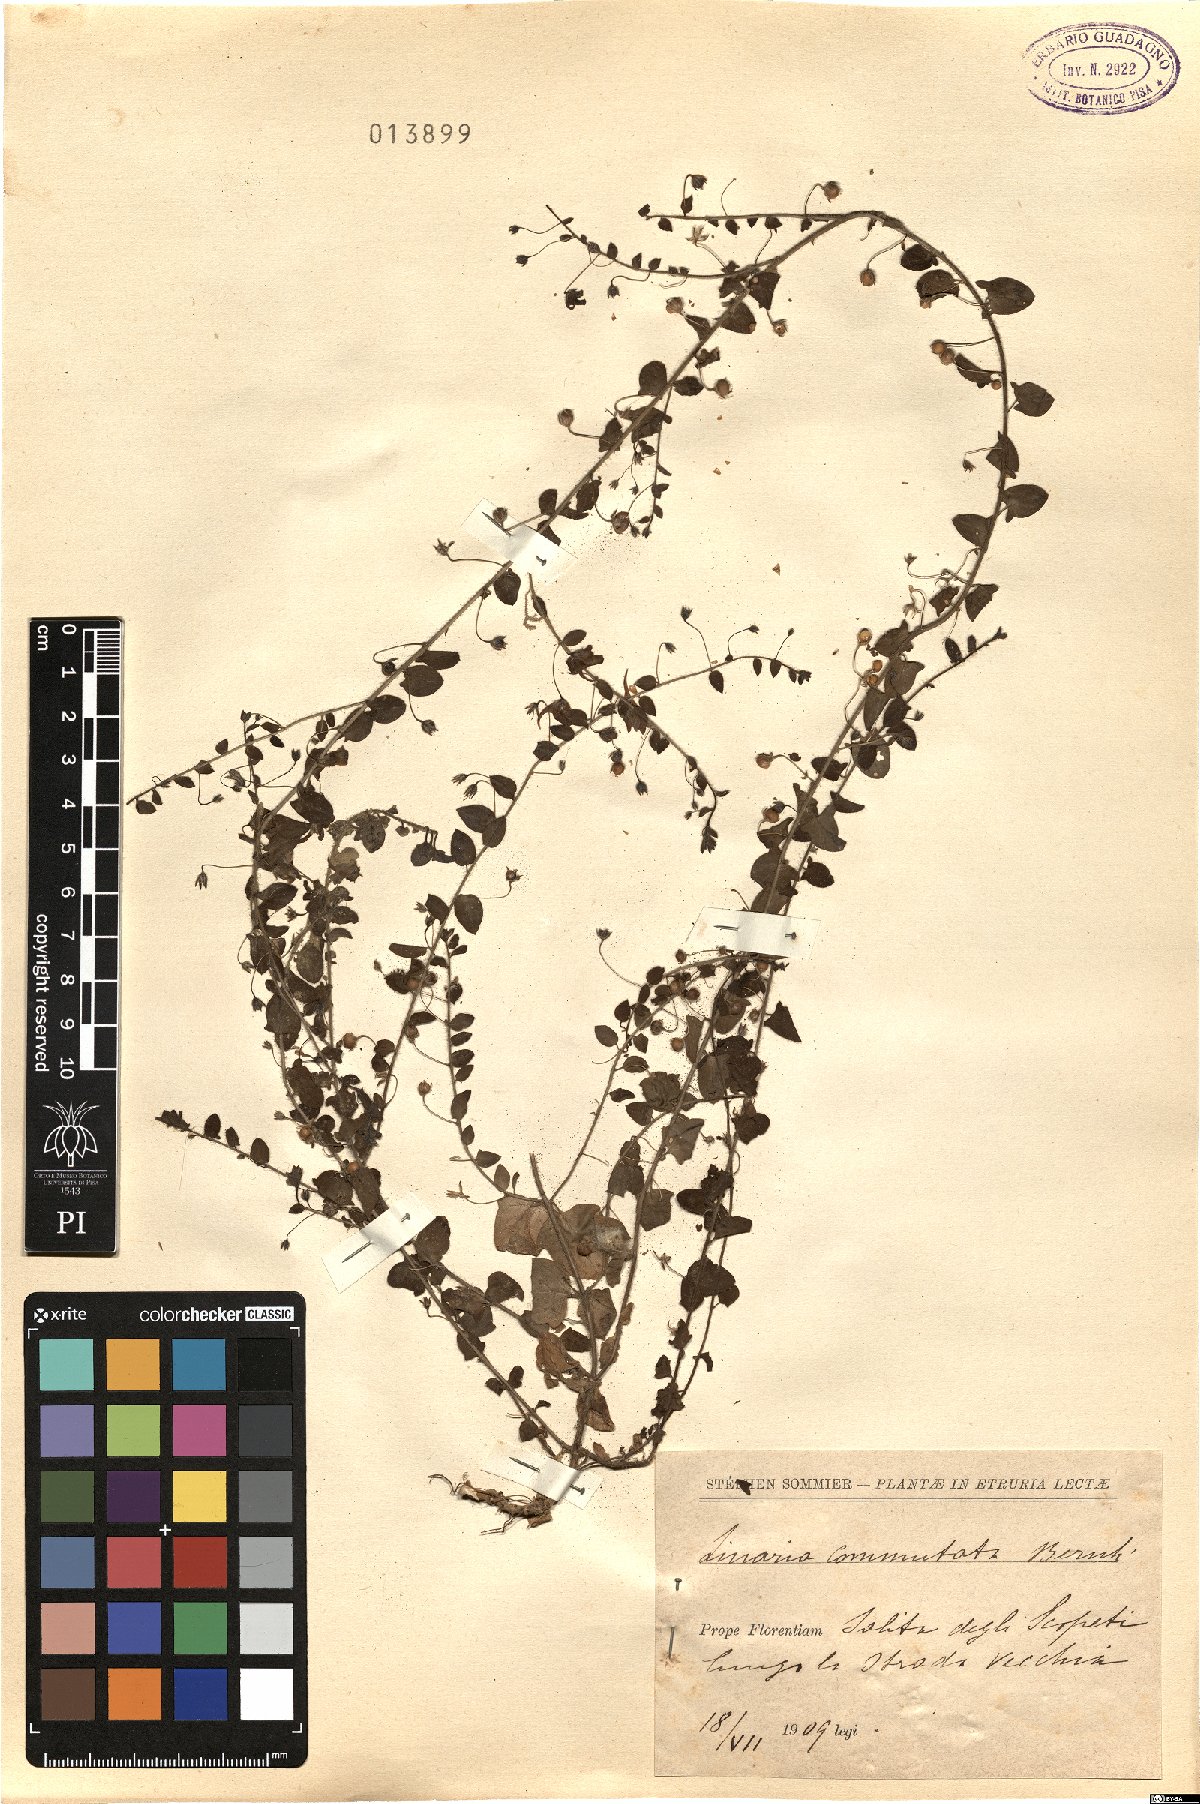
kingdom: Plantae
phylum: Tracheophyta
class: Magnoliopsida
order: Lamiales
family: Plantaginaceae
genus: Kickxia
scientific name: Kickxia elatine
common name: Sharp-leaved fluellen
